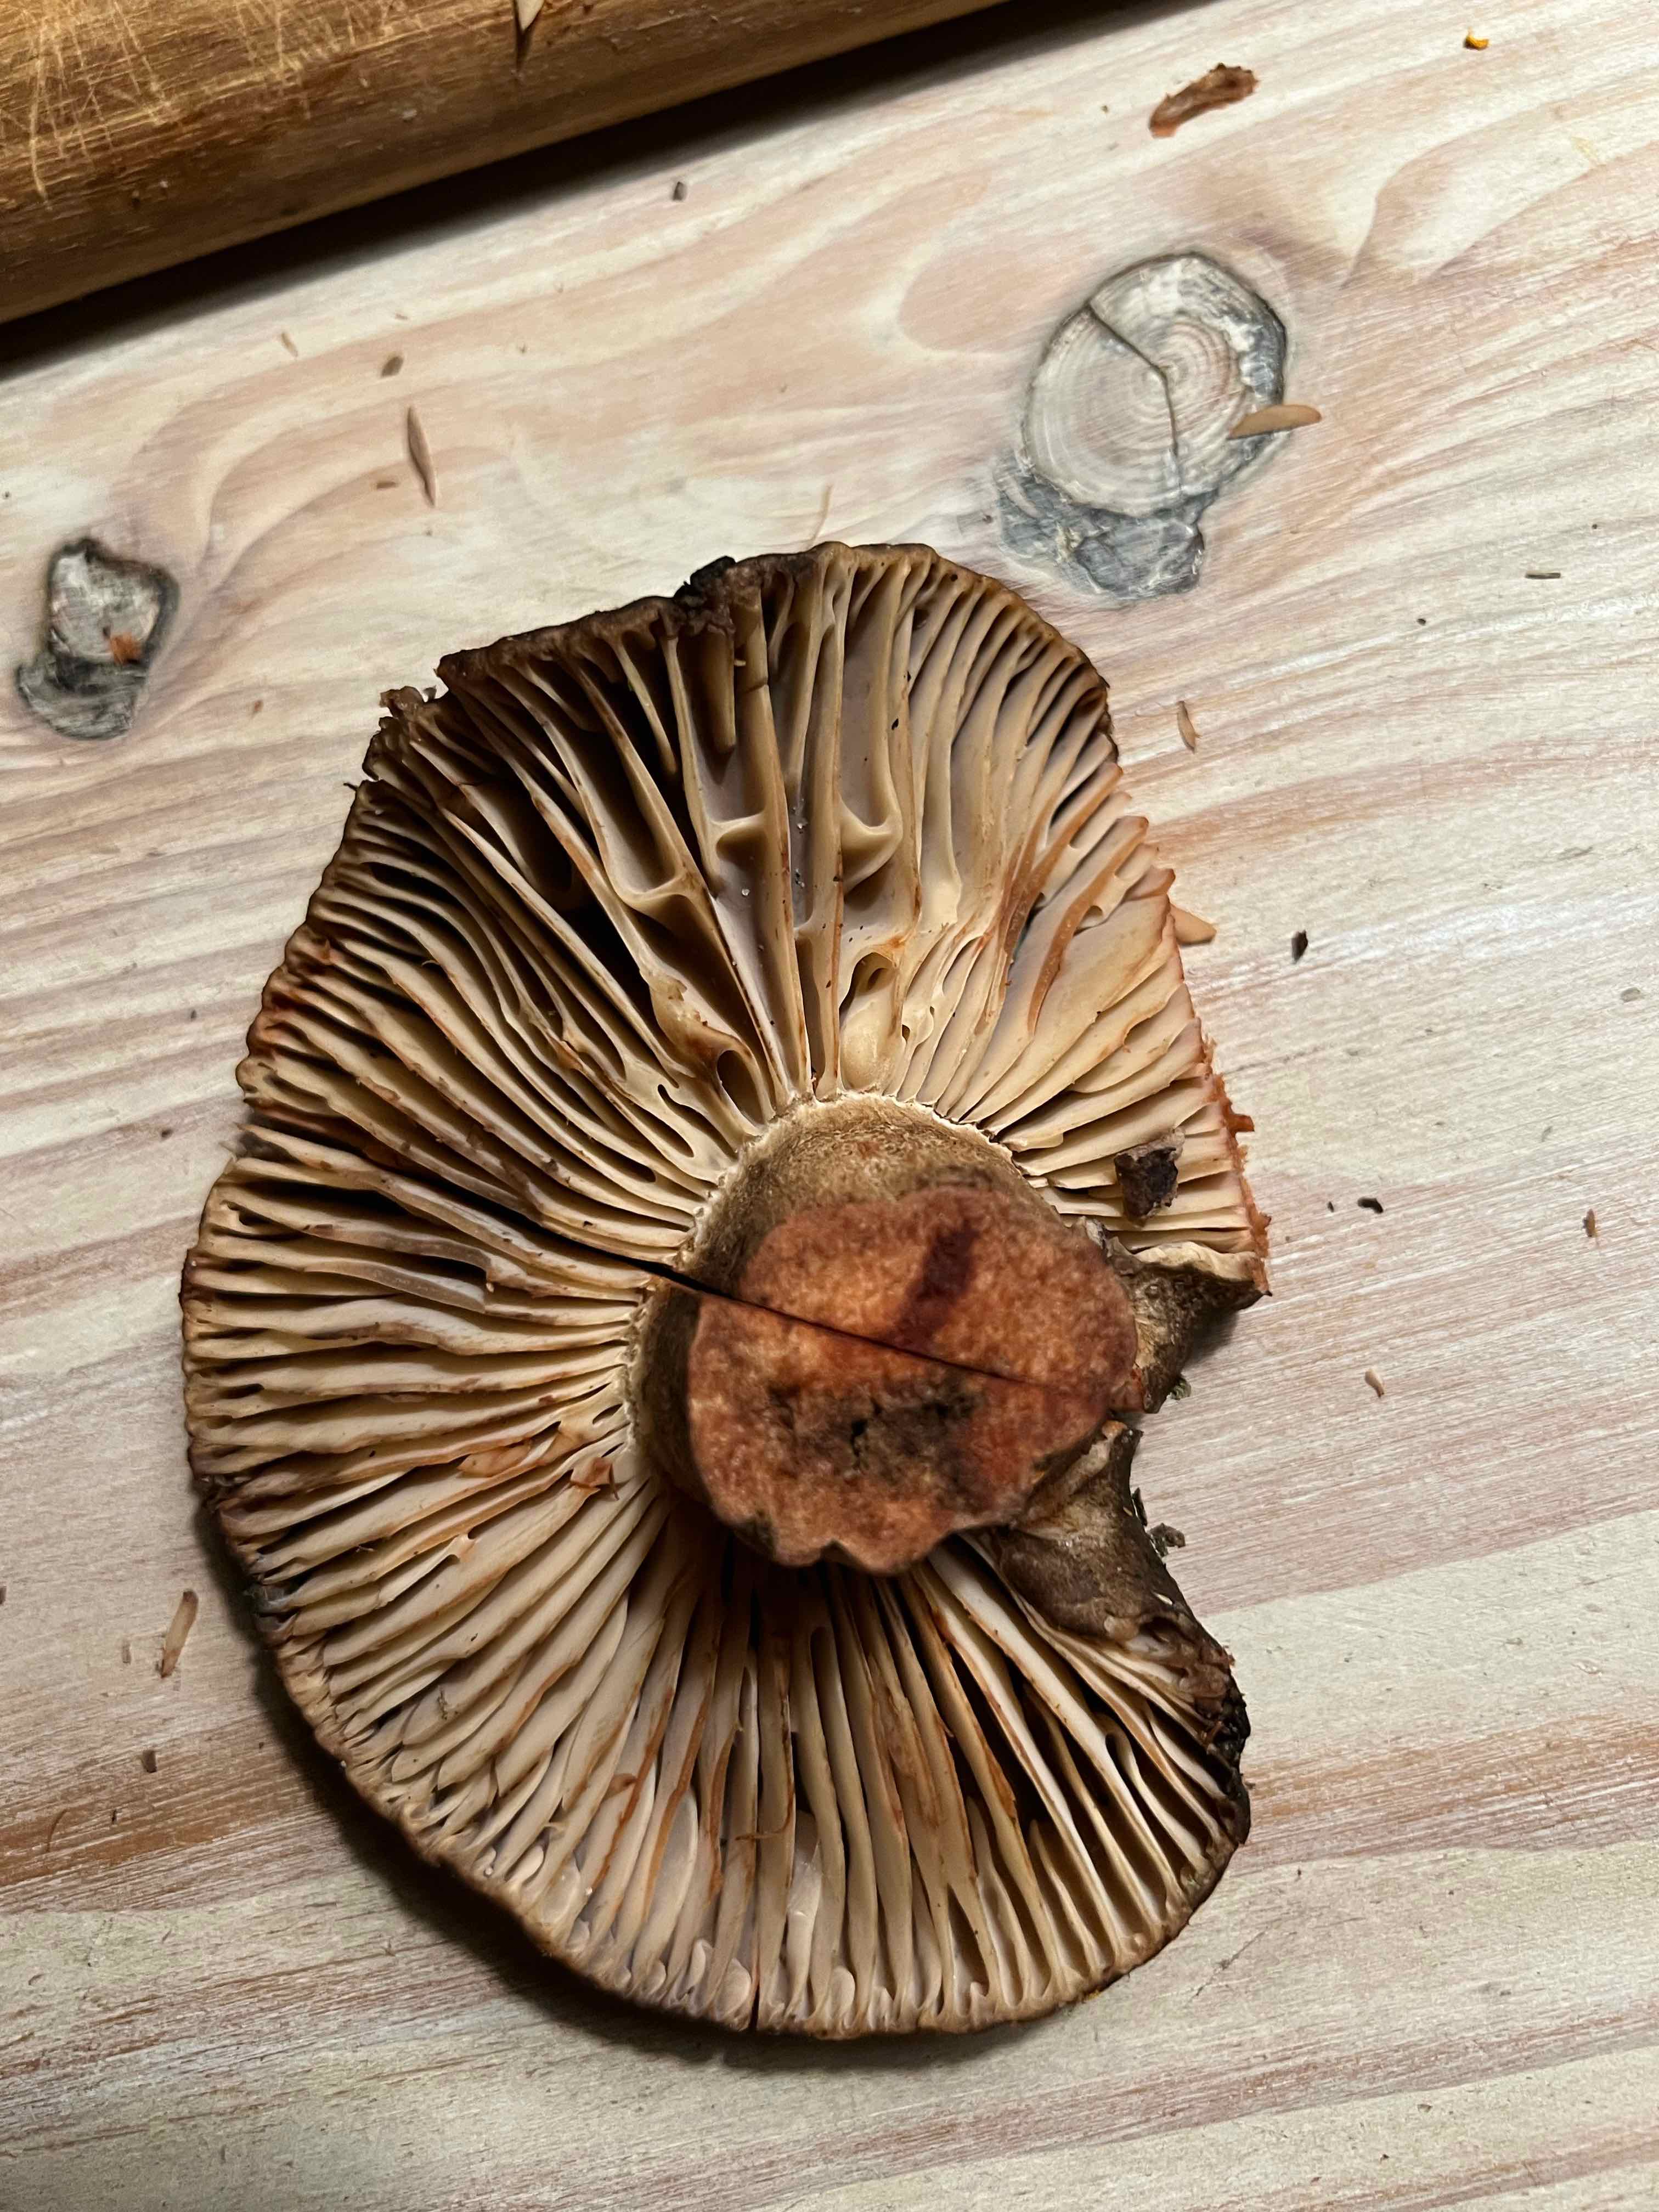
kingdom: Fungi
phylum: Basidiomycota
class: Agaricomycetes
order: Russulales
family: Russulaceae
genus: Russula
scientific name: Russula adusta
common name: sværtende skørhat
